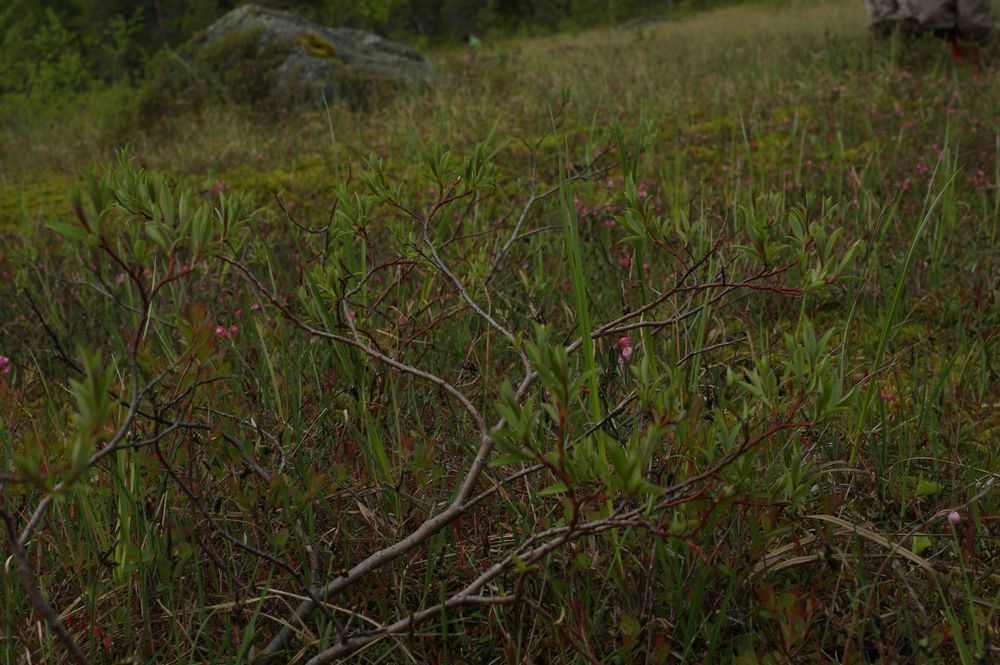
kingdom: Plantae
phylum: Tracheophyta
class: Magnoliopsida
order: Malpighiales
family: Salicaceae
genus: Salix
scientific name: Salix rosmarinifolia
